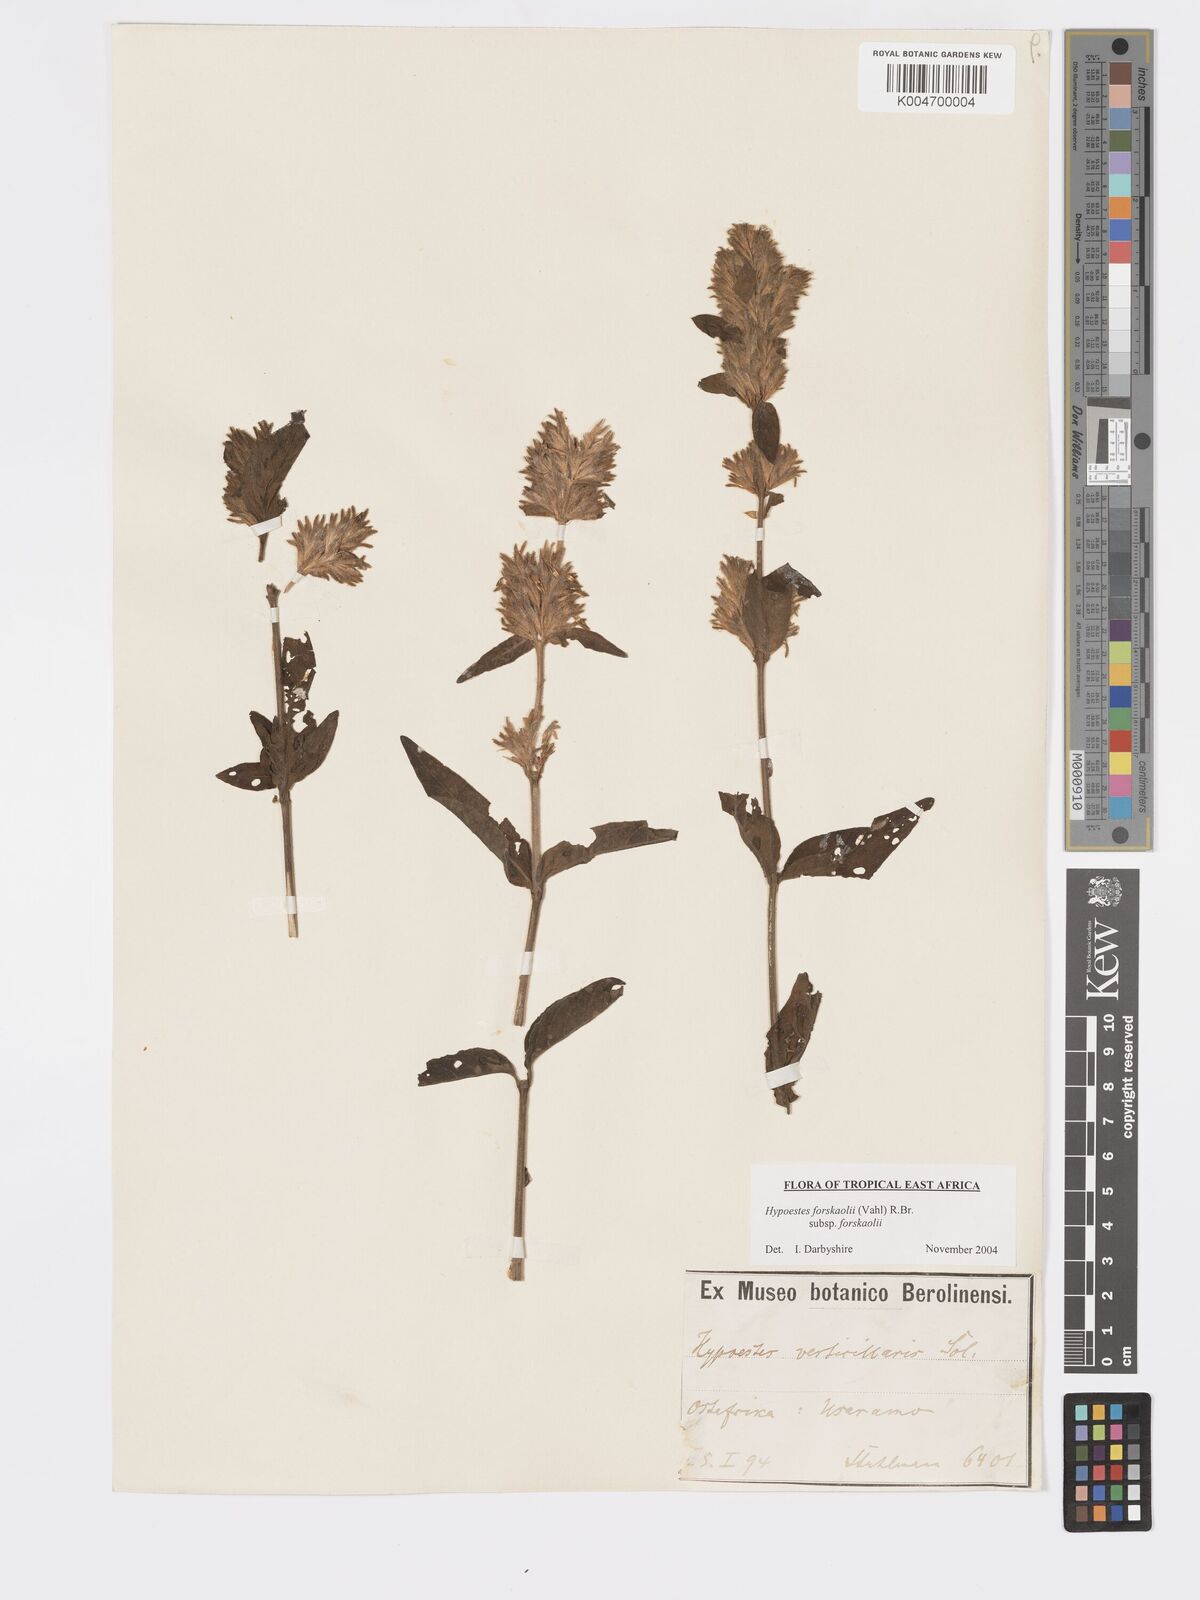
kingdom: Plantae
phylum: Tracheophyta
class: Magnoliopsida
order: Lamiales
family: Acanthaceae
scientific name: Acanthaceae
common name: Acanthaceae
